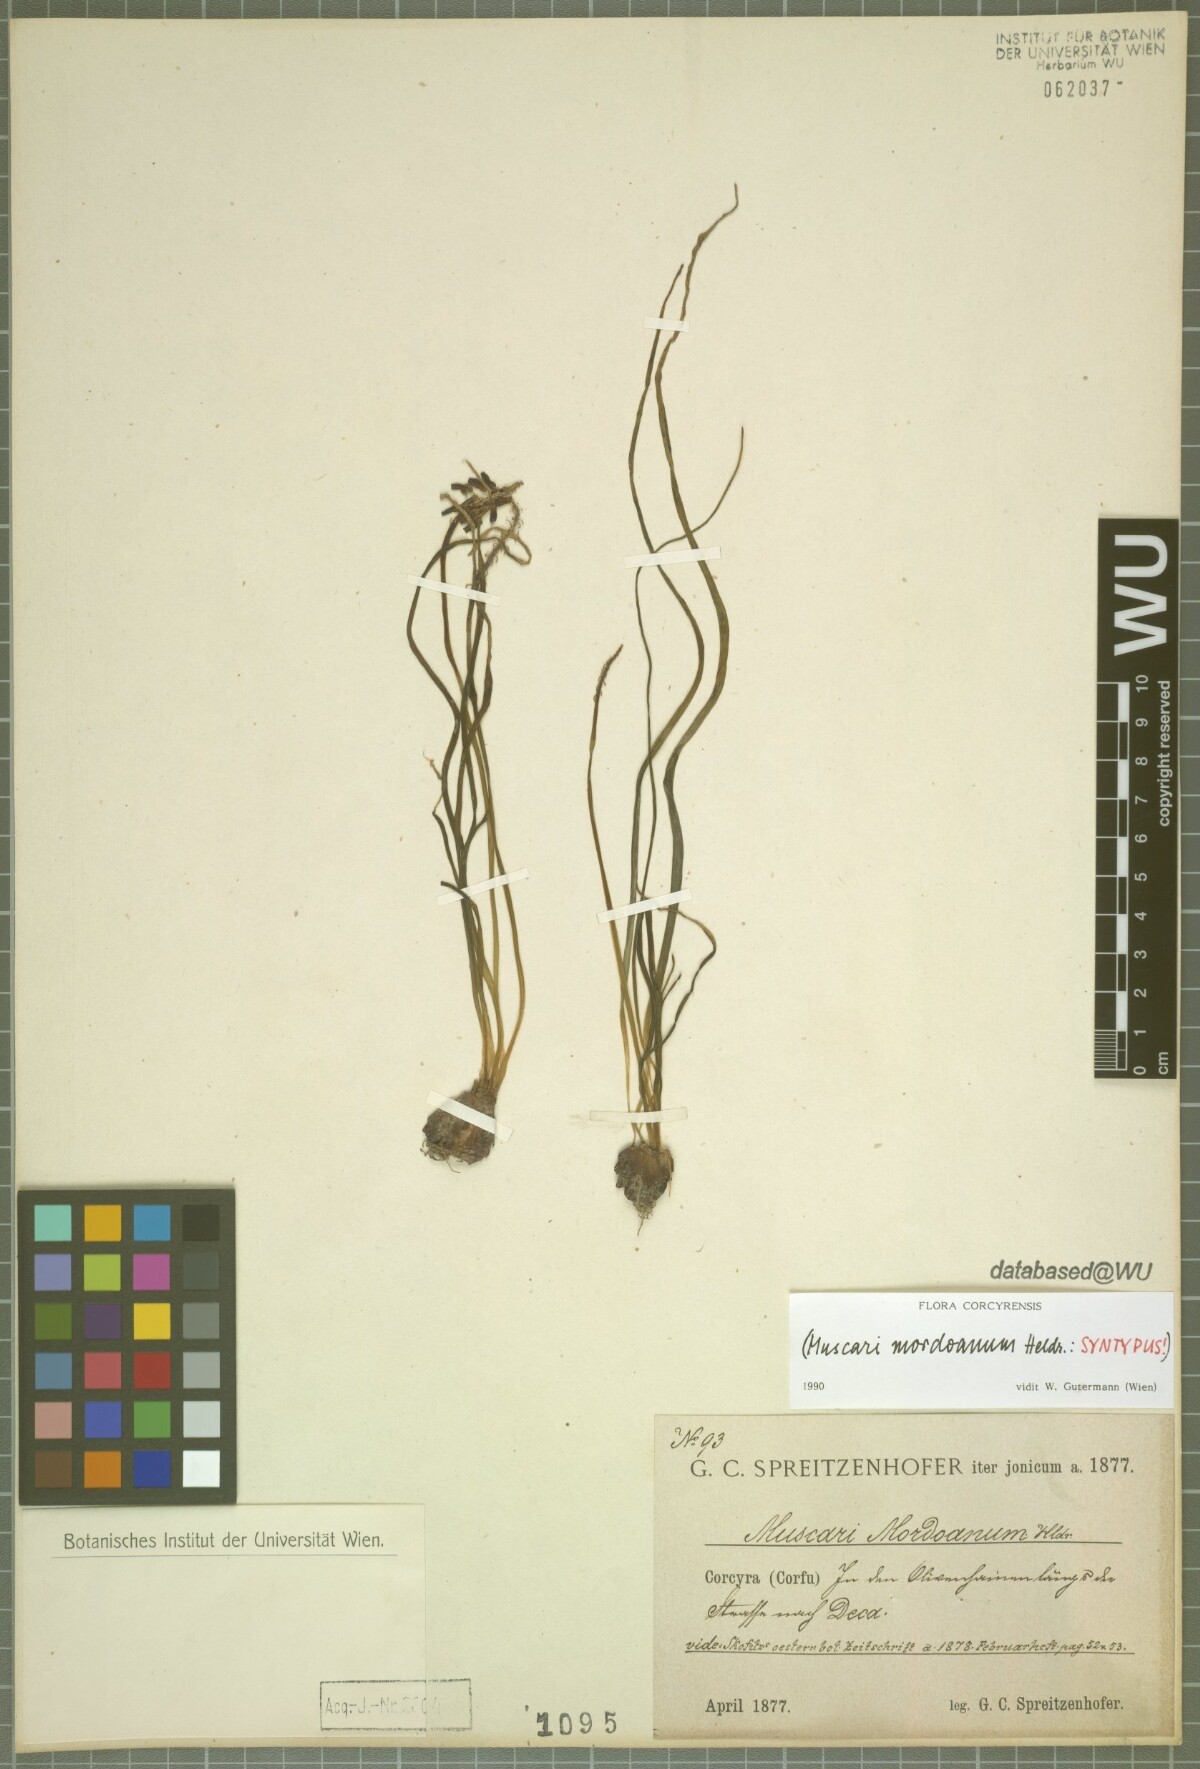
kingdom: Plantae
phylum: Tracheophyta
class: Liliopsida
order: Asparagales
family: Asparagaceae
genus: Muscari
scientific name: Muscari neglectum
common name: Grape-hyacinth
